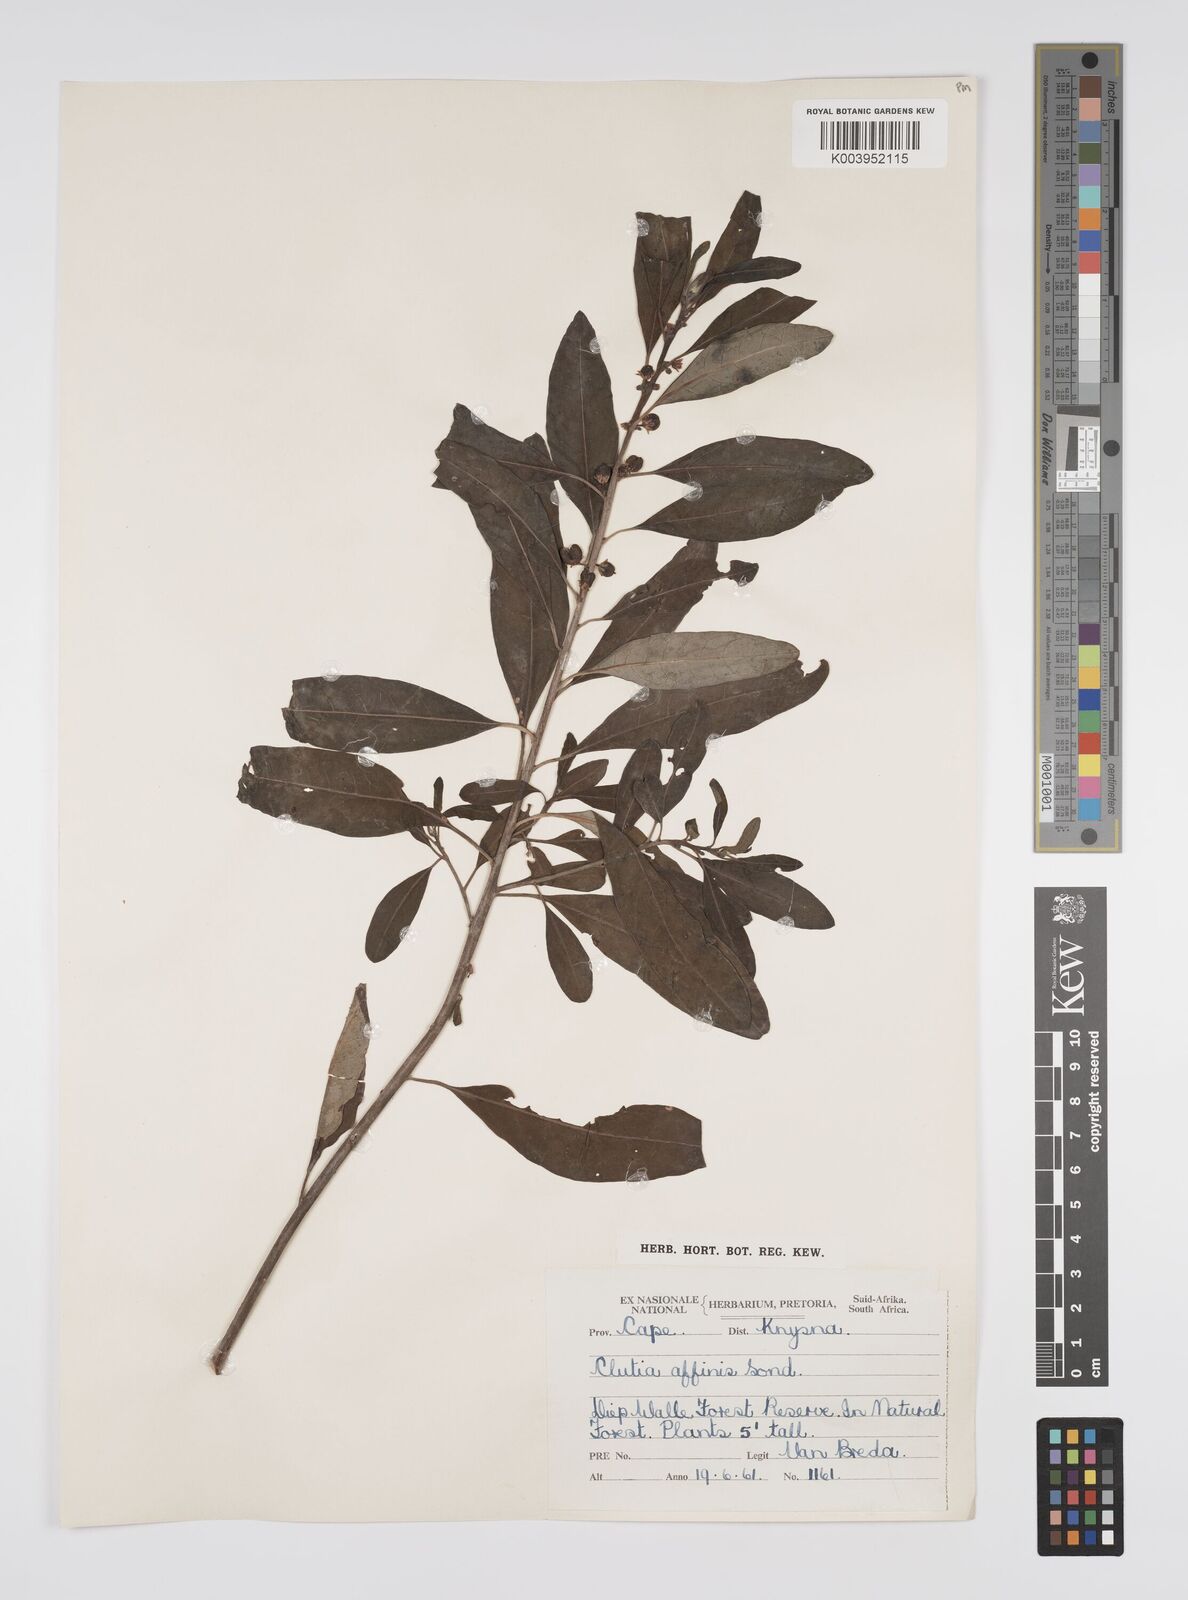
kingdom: Plantae
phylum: Tracheophyta
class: Magnoliopsida
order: Malpighiales
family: Peraceae
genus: Clutia
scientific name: Clutia affinis
